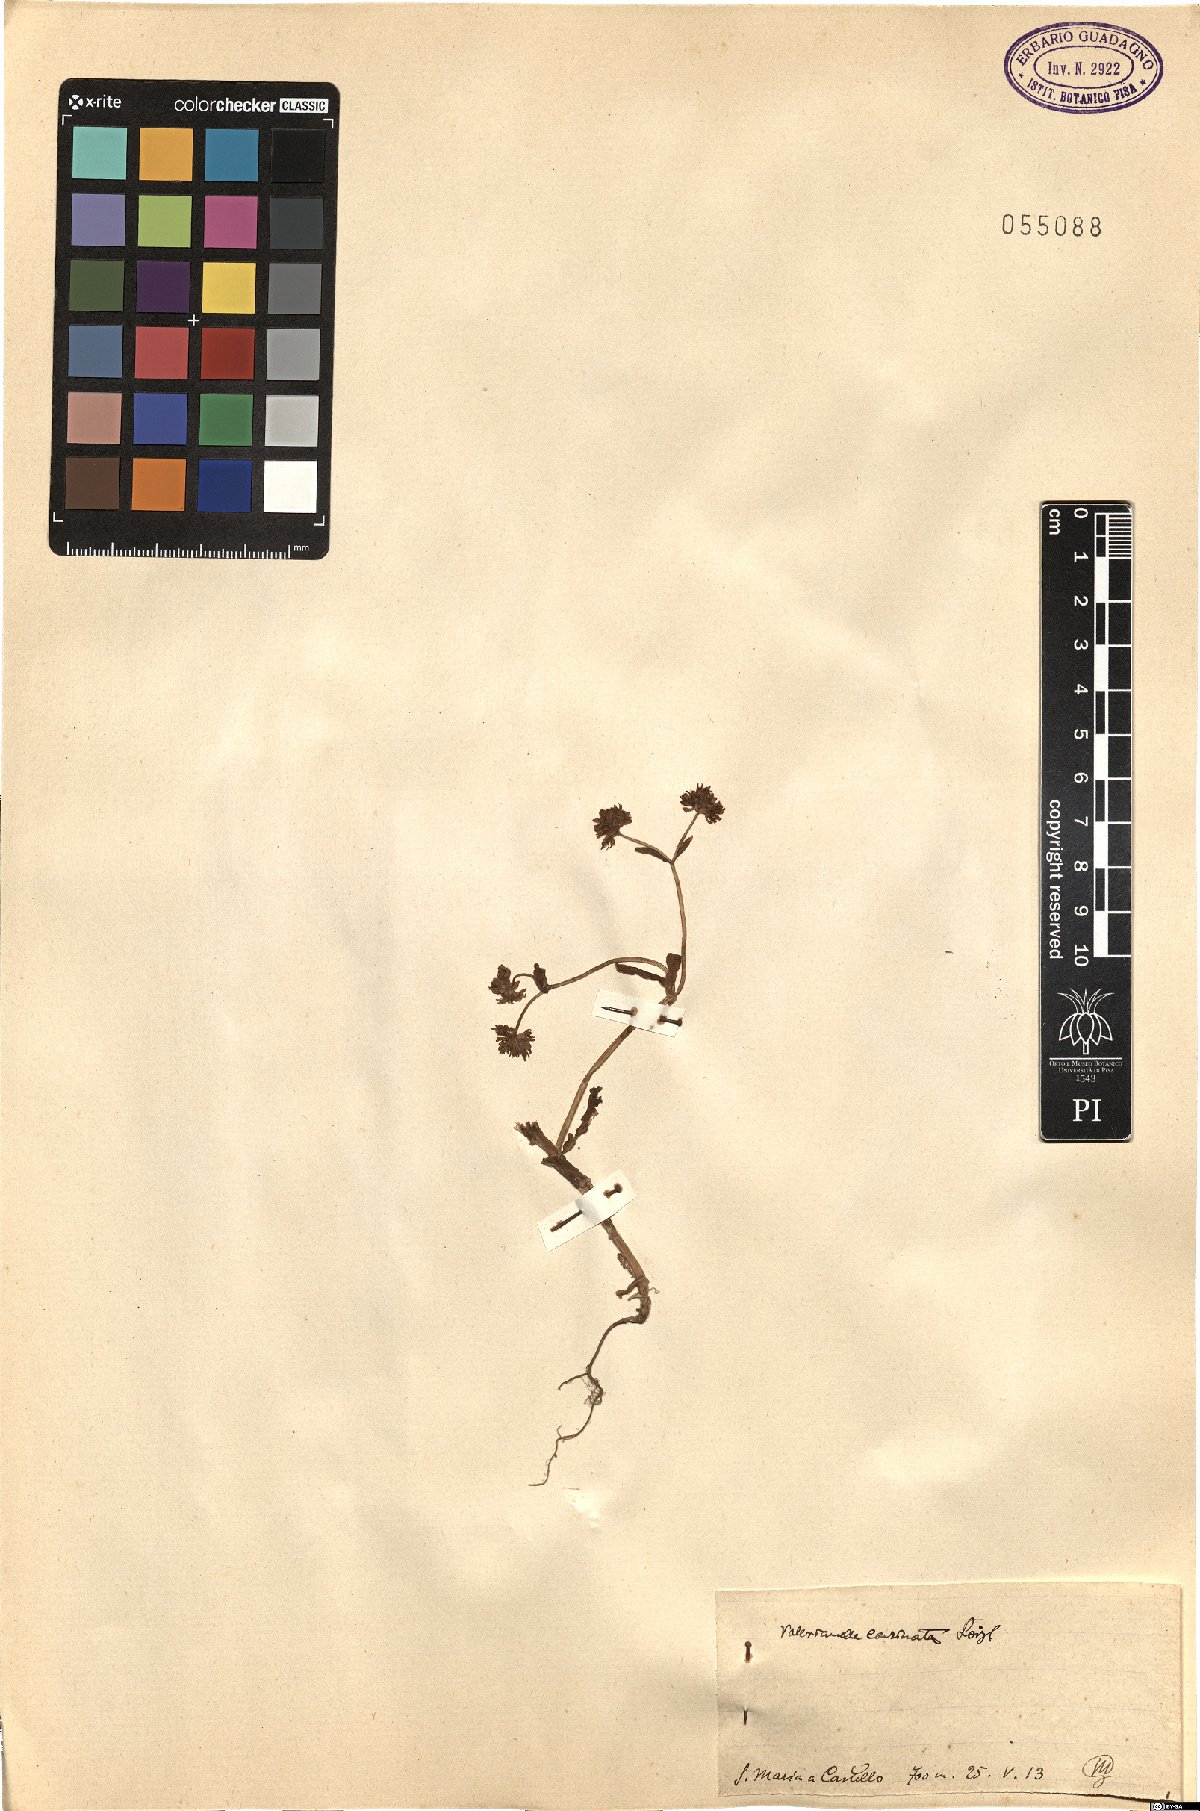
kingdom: Plantae
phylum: Tracheophyta
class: Magnoliopsida
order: Dipsacales
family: Caprifoliaceae
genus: Valerianella
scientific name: Valerianella carinata
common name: Keeled-fruited cornsalad
